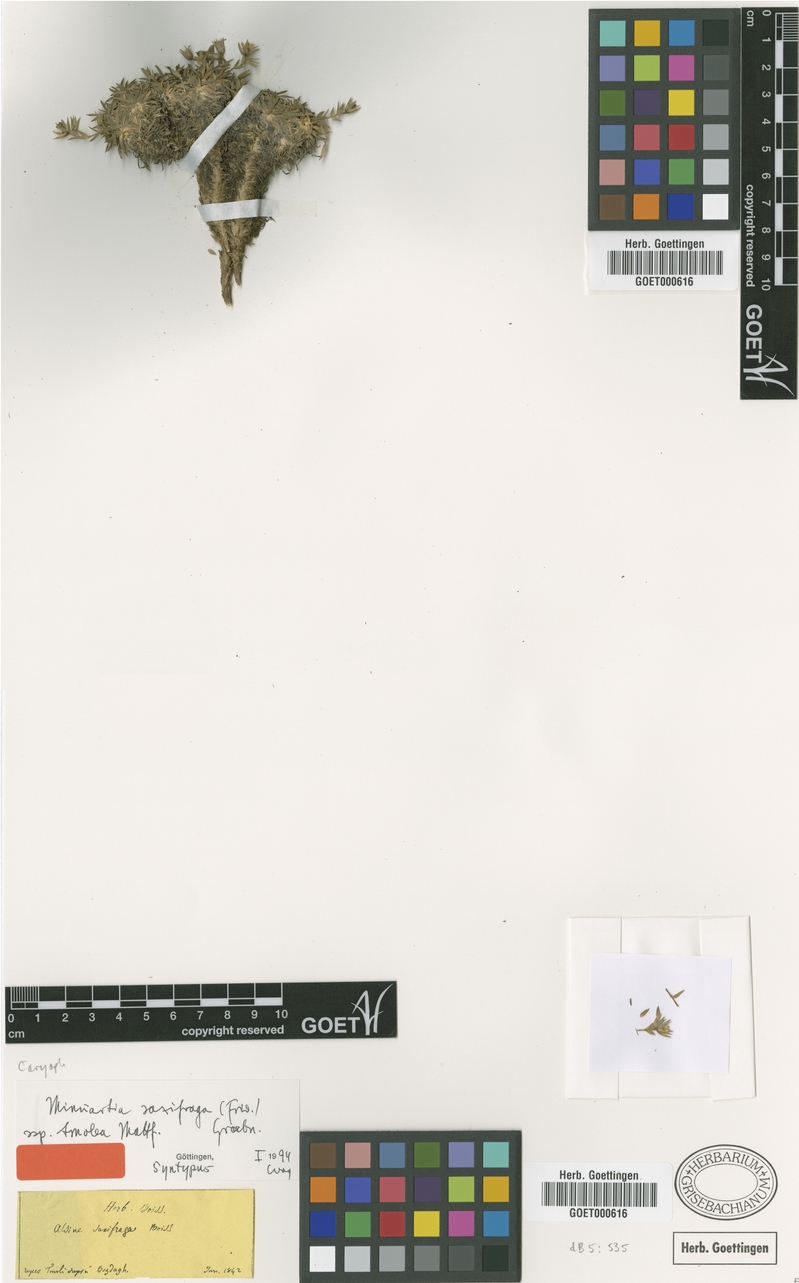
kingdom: Plantae
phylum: Tracheophyta
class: Magnoliopsida
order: Caryophyllales
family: Caryophyllaceae
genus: Mcneillia
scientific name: Mcneillia saxifraga
